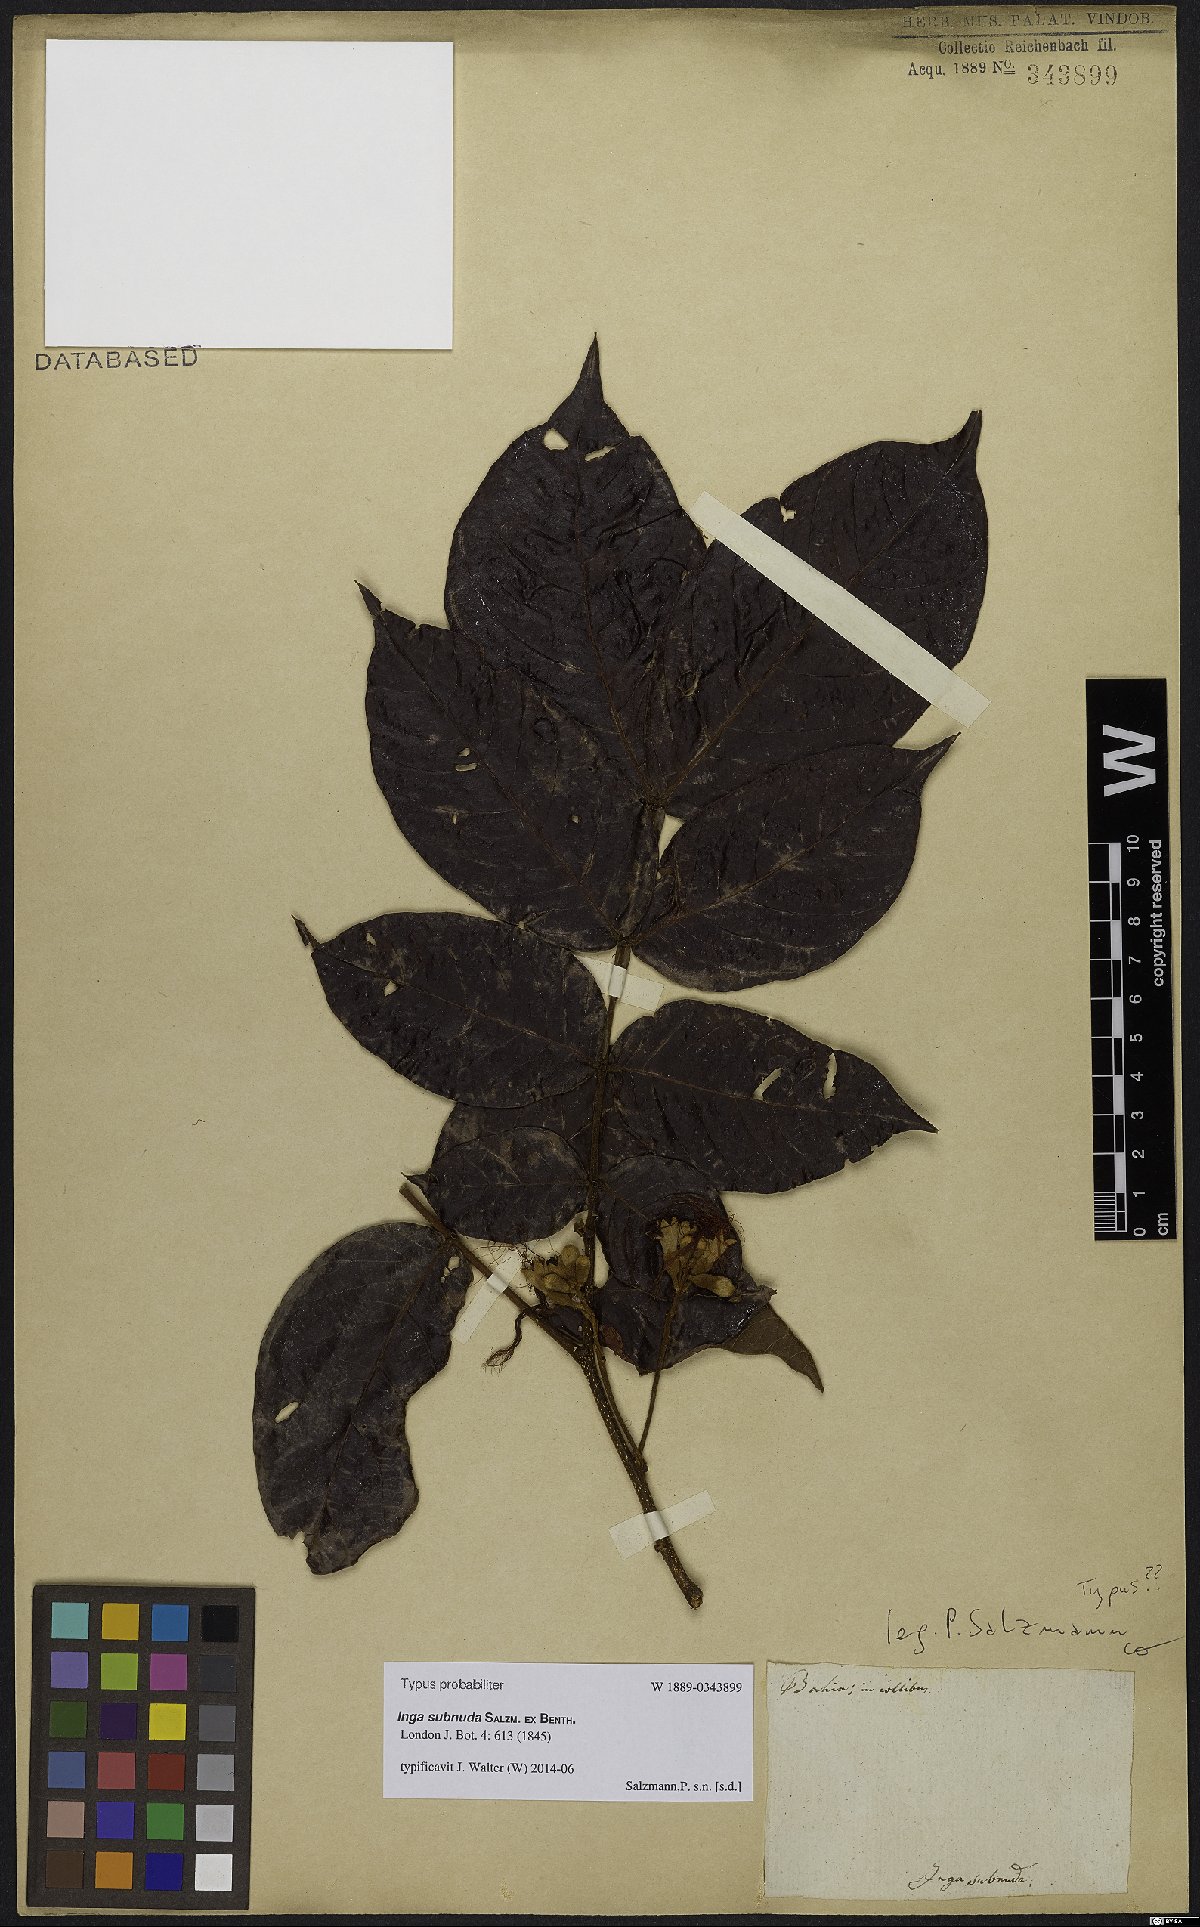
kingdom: Plantae
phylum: Tracheophyta
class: Magnoliopsida
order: Fabales
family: Fabaceae
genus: Inga
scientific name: Inga subnuda
